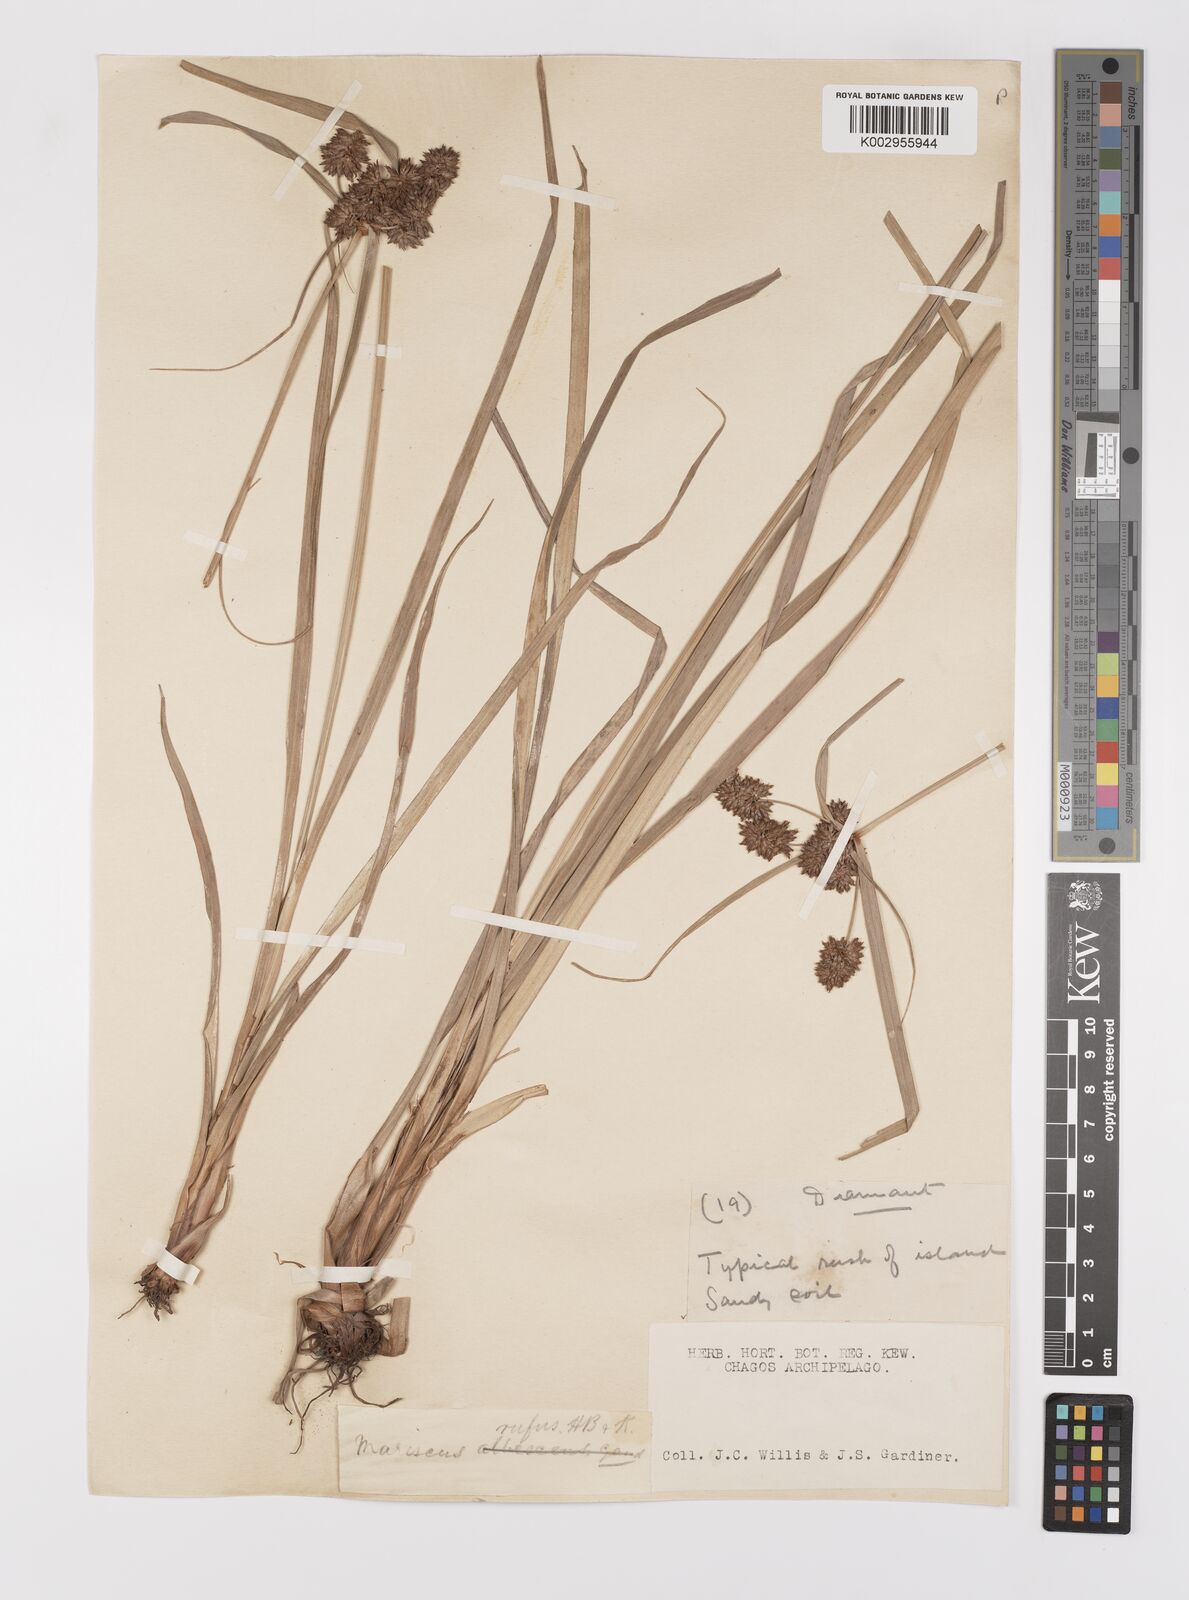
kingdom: Plantae
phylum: Tracheophyta
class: Liliopsida
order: Poales
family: Cyperaceae
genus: Cyperus
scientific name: Cyperus ligularis
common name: Swamp flat sedge
